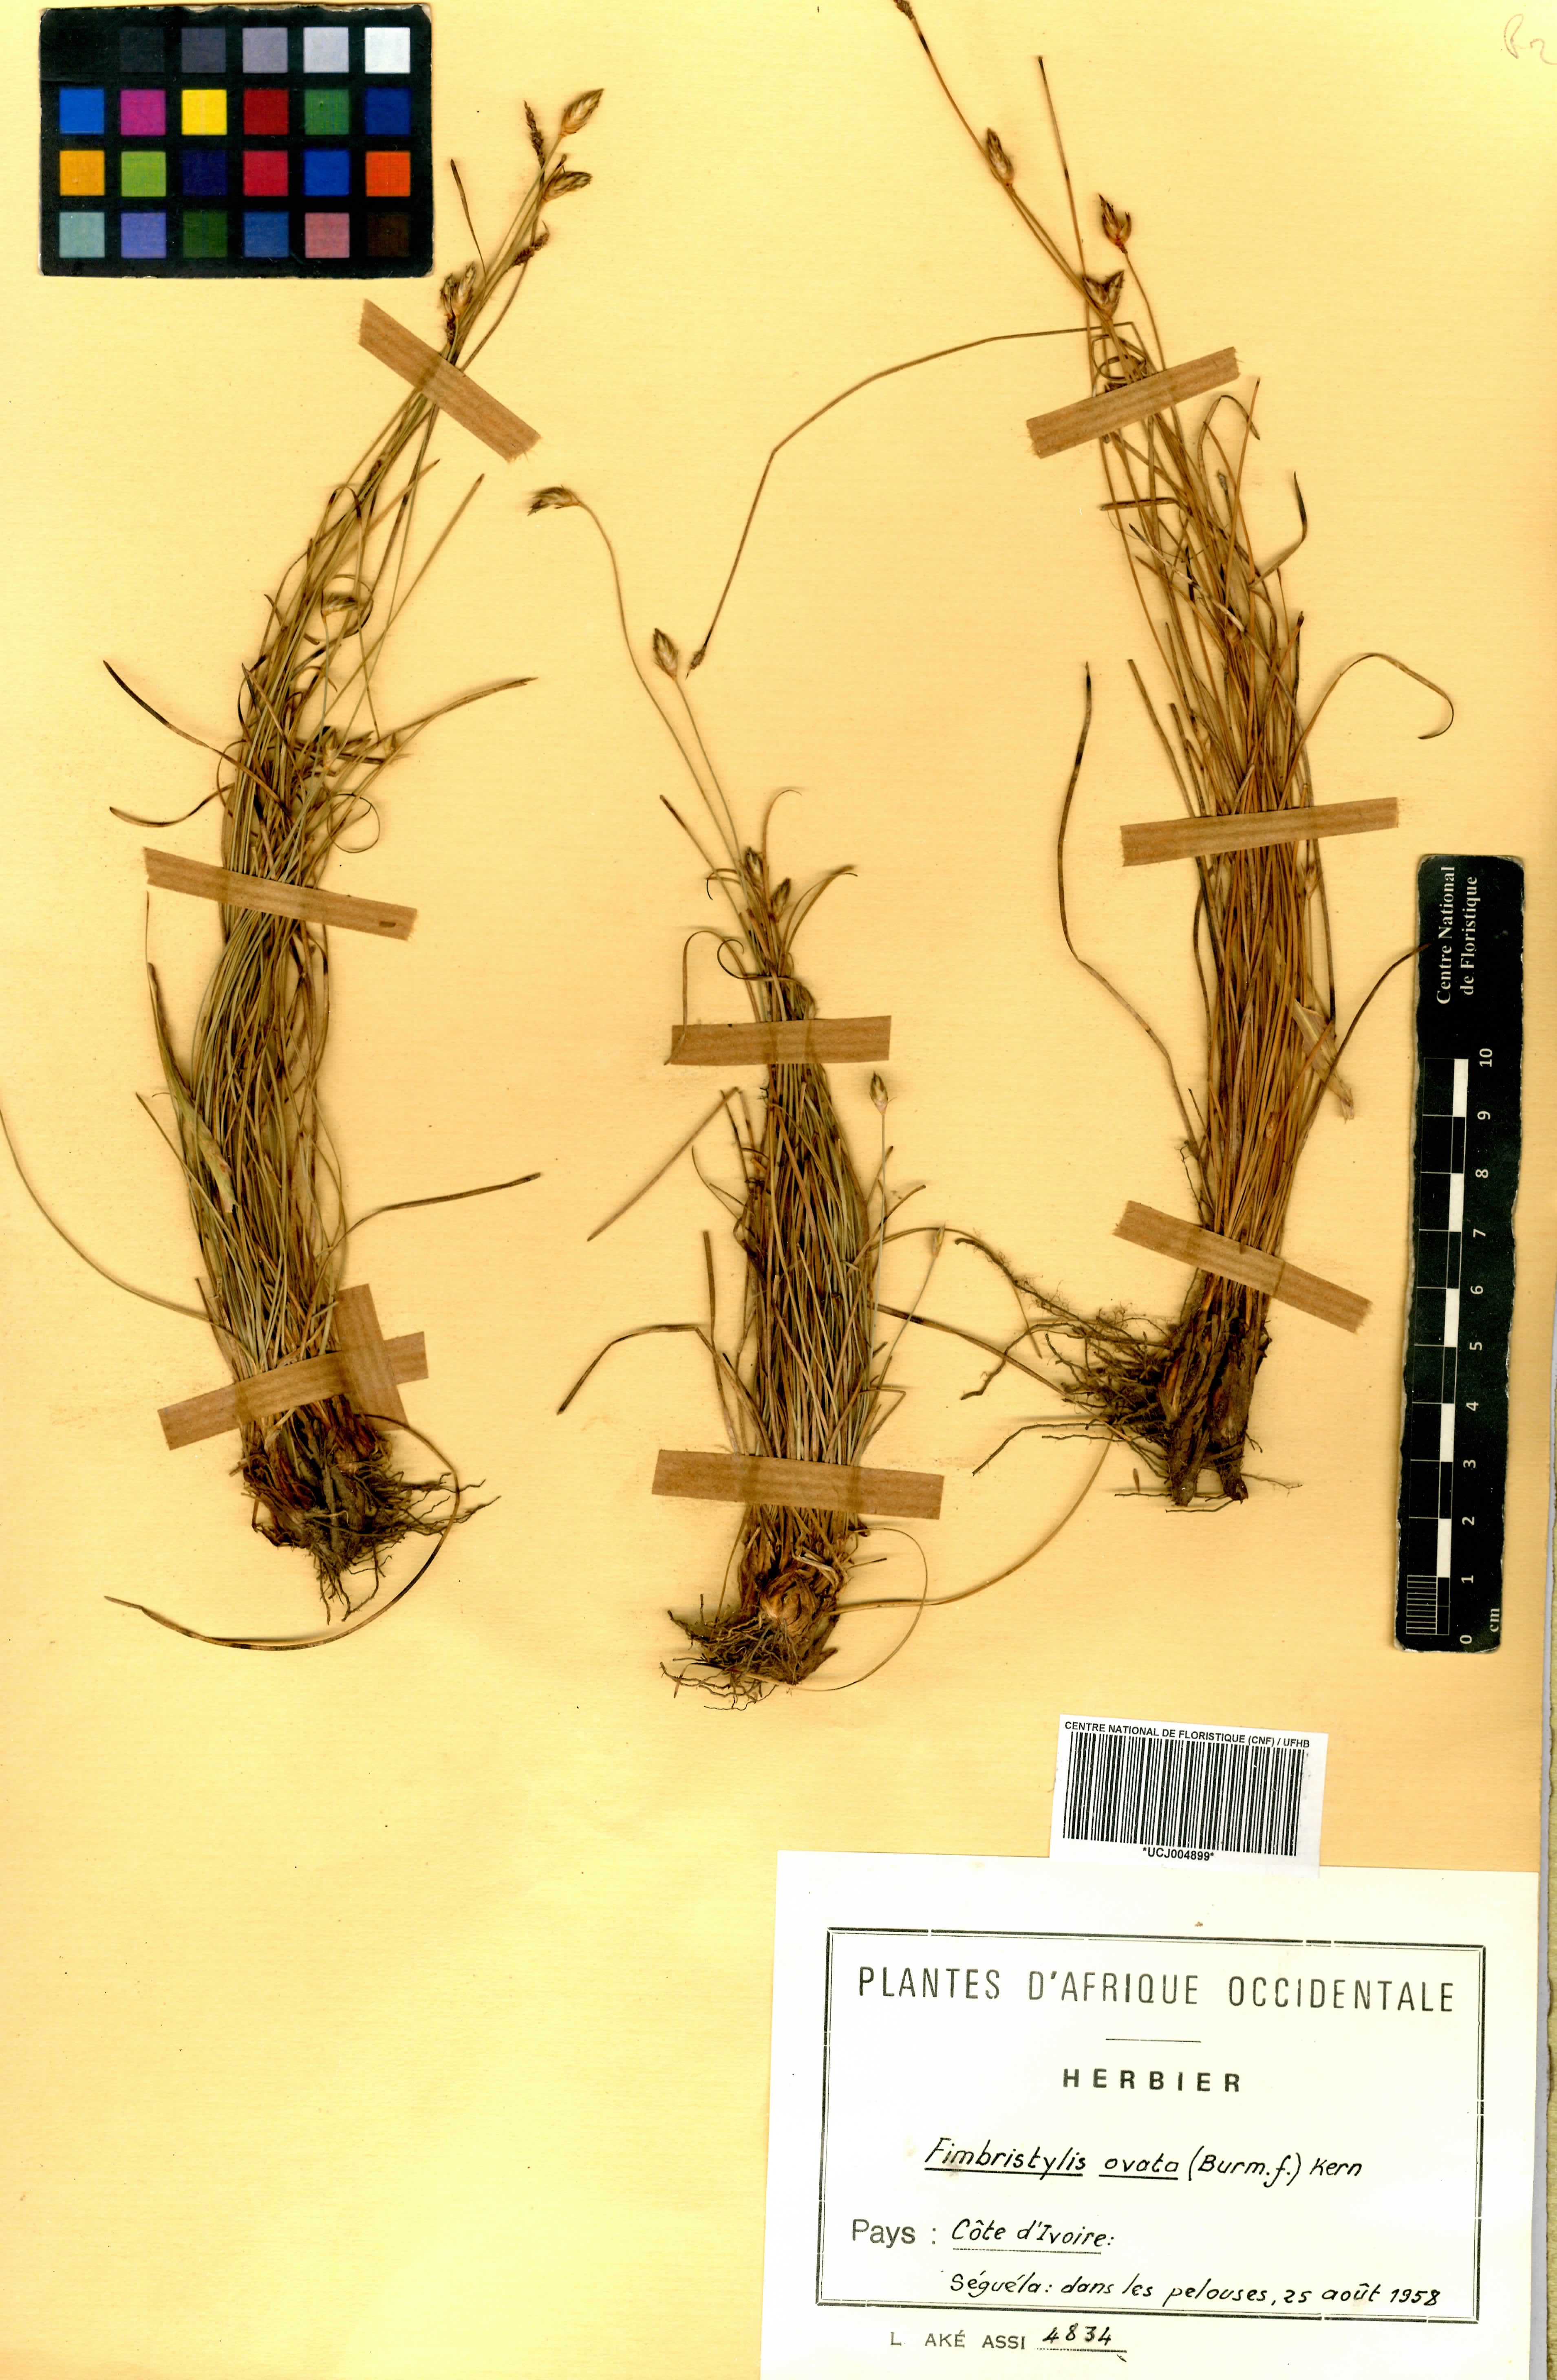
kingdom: Plantae
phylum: Tracheophyta
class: Liliopsida
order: Poales
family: Cyperaceae
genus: Abildgaardia
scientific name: Abildgaardia ovata
